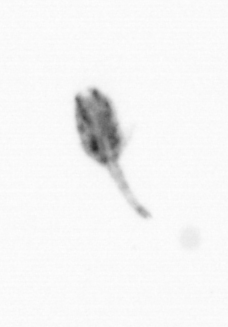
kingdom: Animalia
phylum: Arthropoda
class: Copepoda
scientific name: Copepoda
